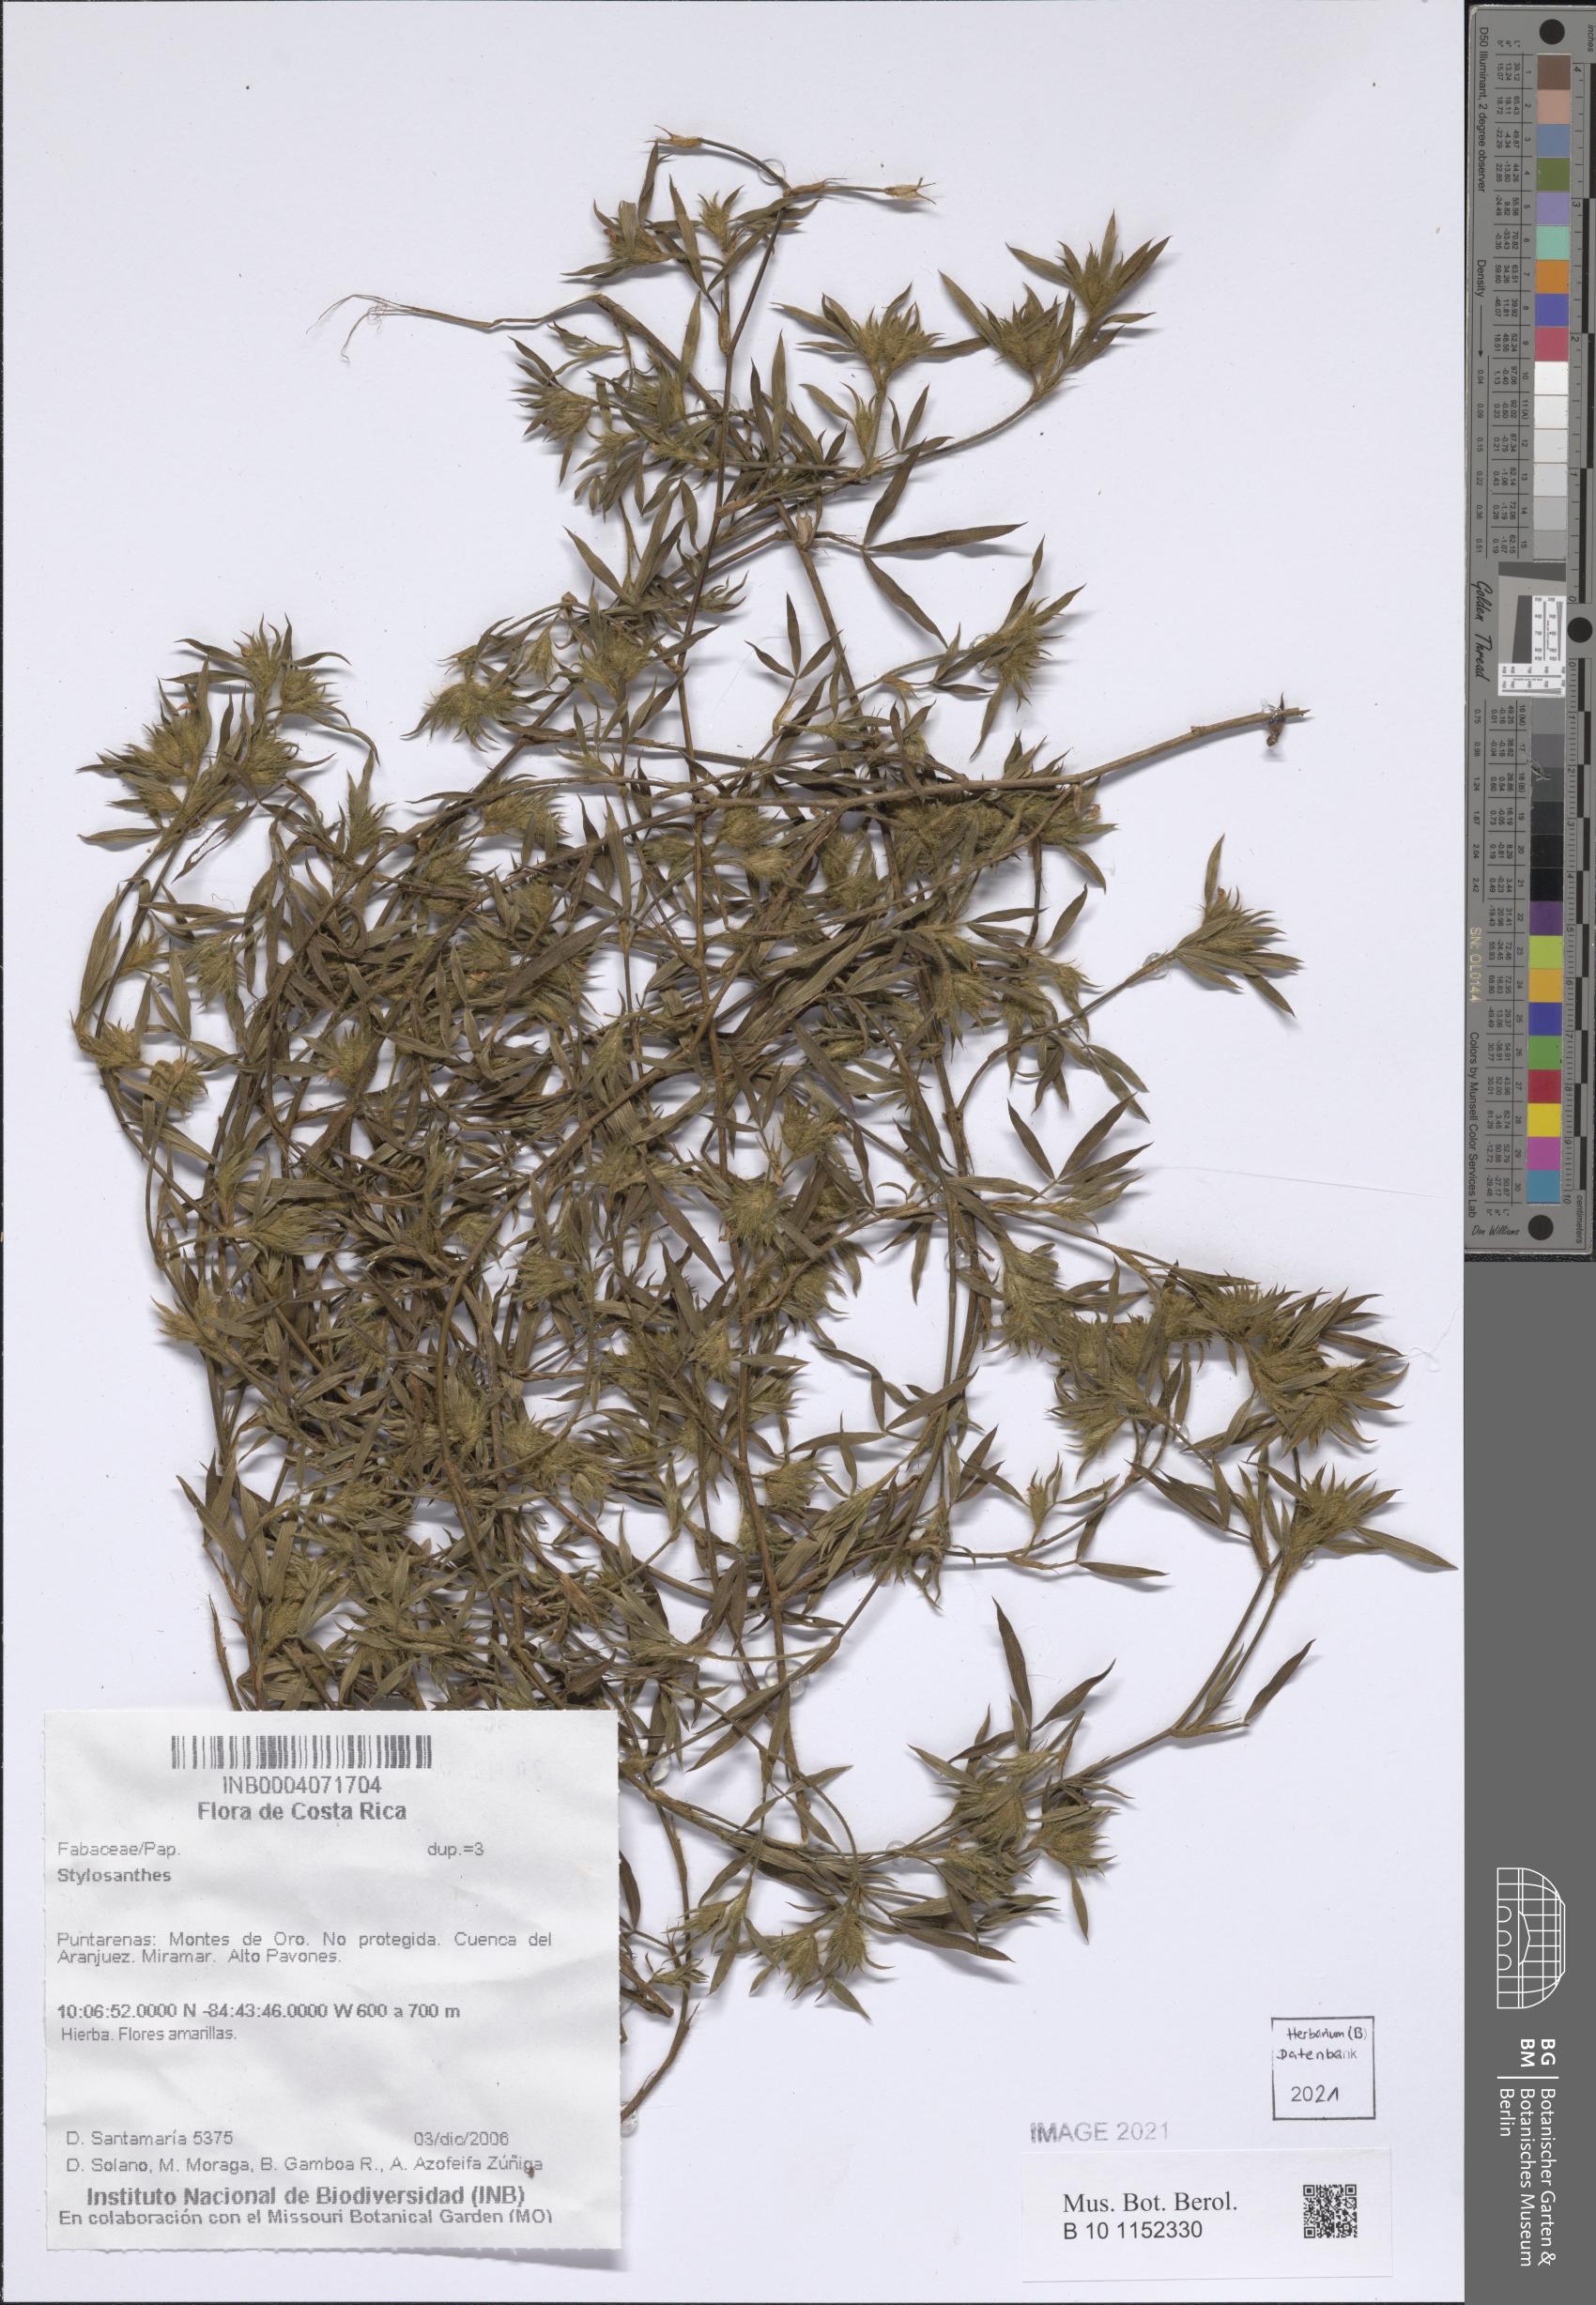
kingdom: Plantae
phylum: Tracheophyta
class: Magnoliopsida
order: Fabales
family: Fabaceae
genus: Stylosanthes
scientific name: Stylosanthes
